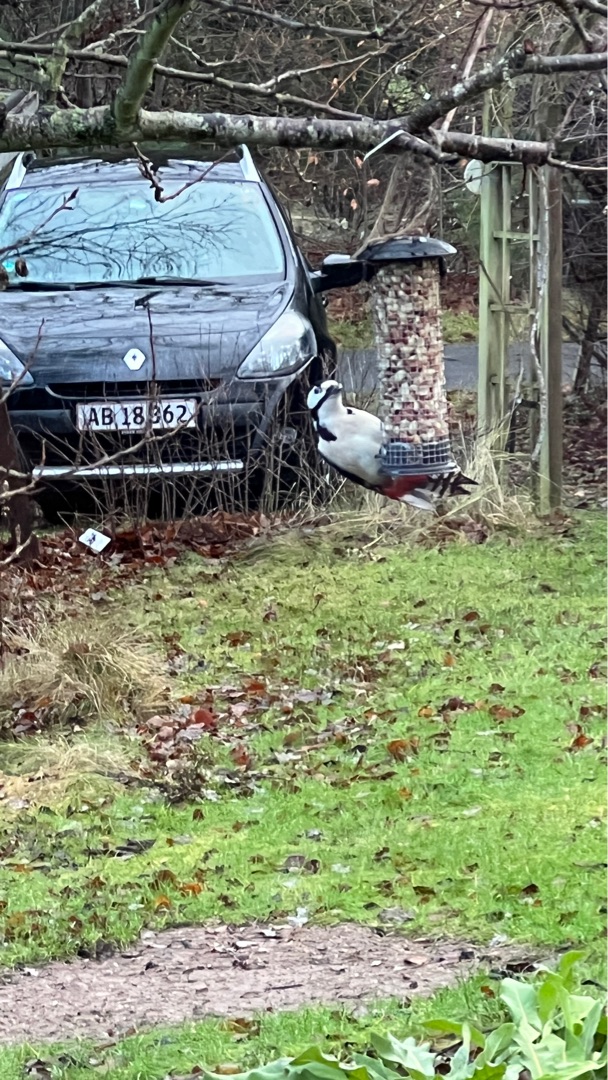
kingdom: Animalia
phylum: Chordata
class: Aves
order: Piciformes
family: Picidae
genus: Dendrocopos
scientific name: Dendrocopos major
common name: Stor flagspætte
